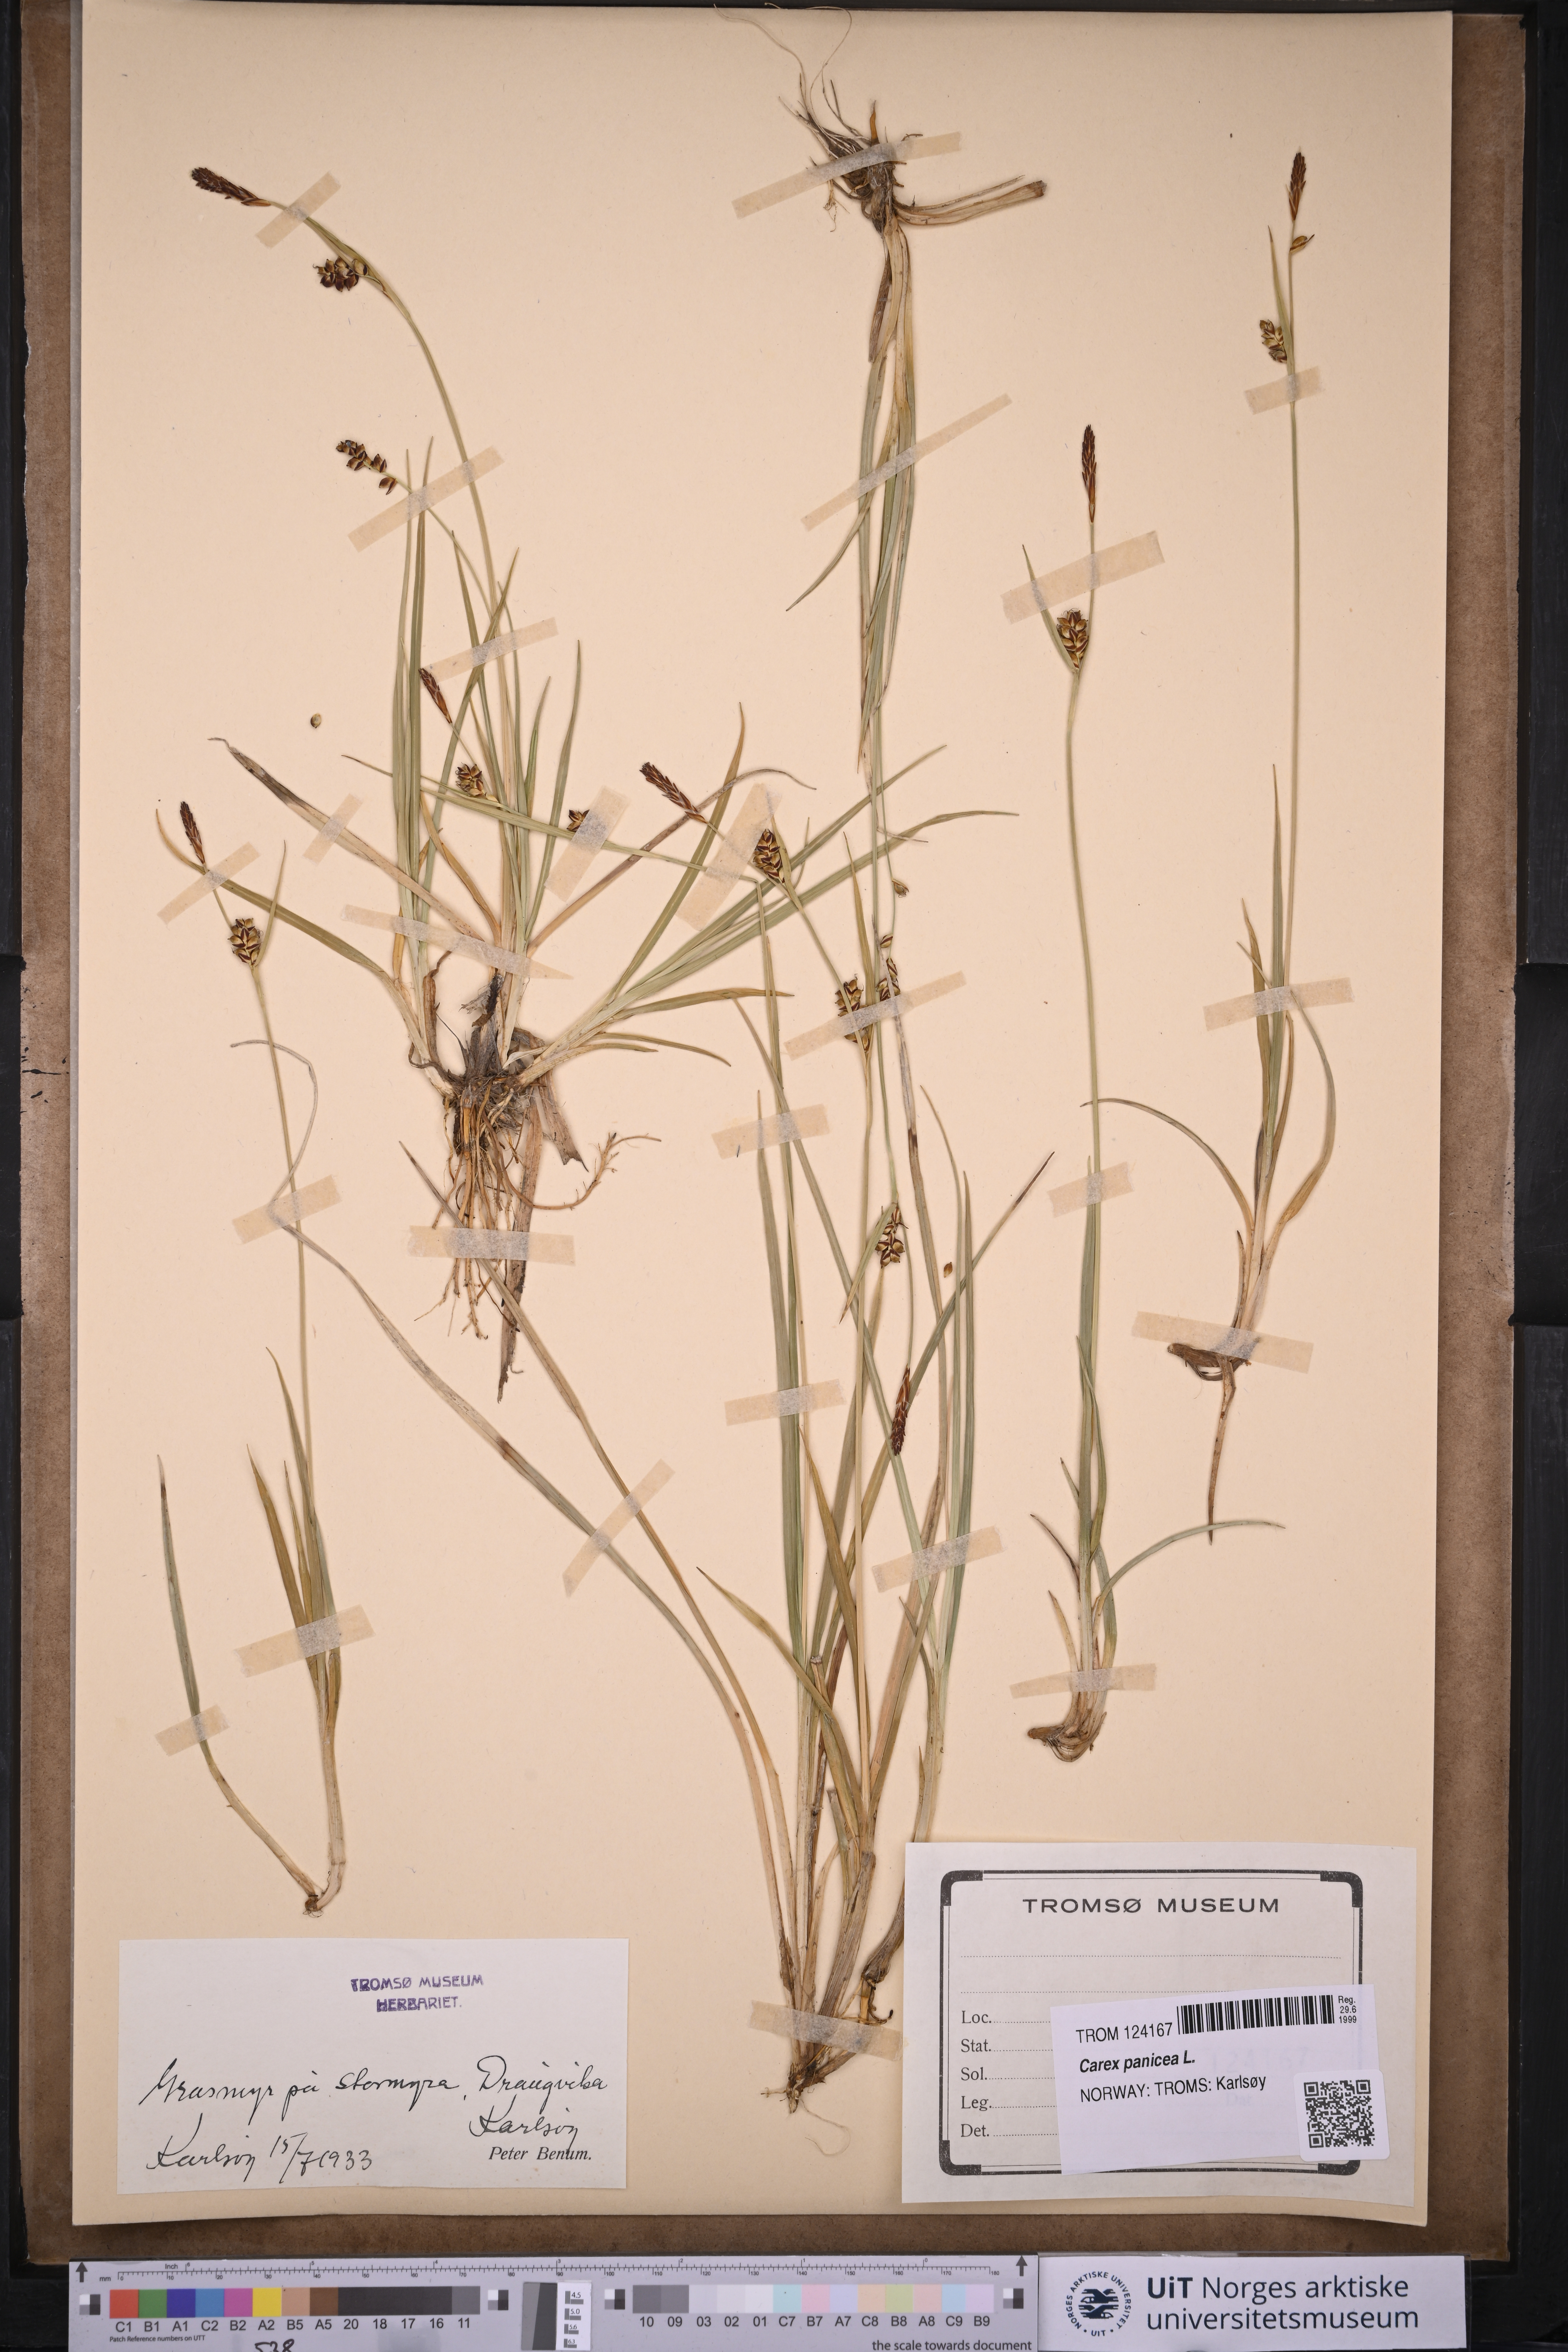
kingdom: Plantae
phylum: Tracheophyta
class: Liliopsida
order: Poales
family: Cyperaceae
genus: Carex
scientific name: Carex panicea
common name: Carnation sedge
